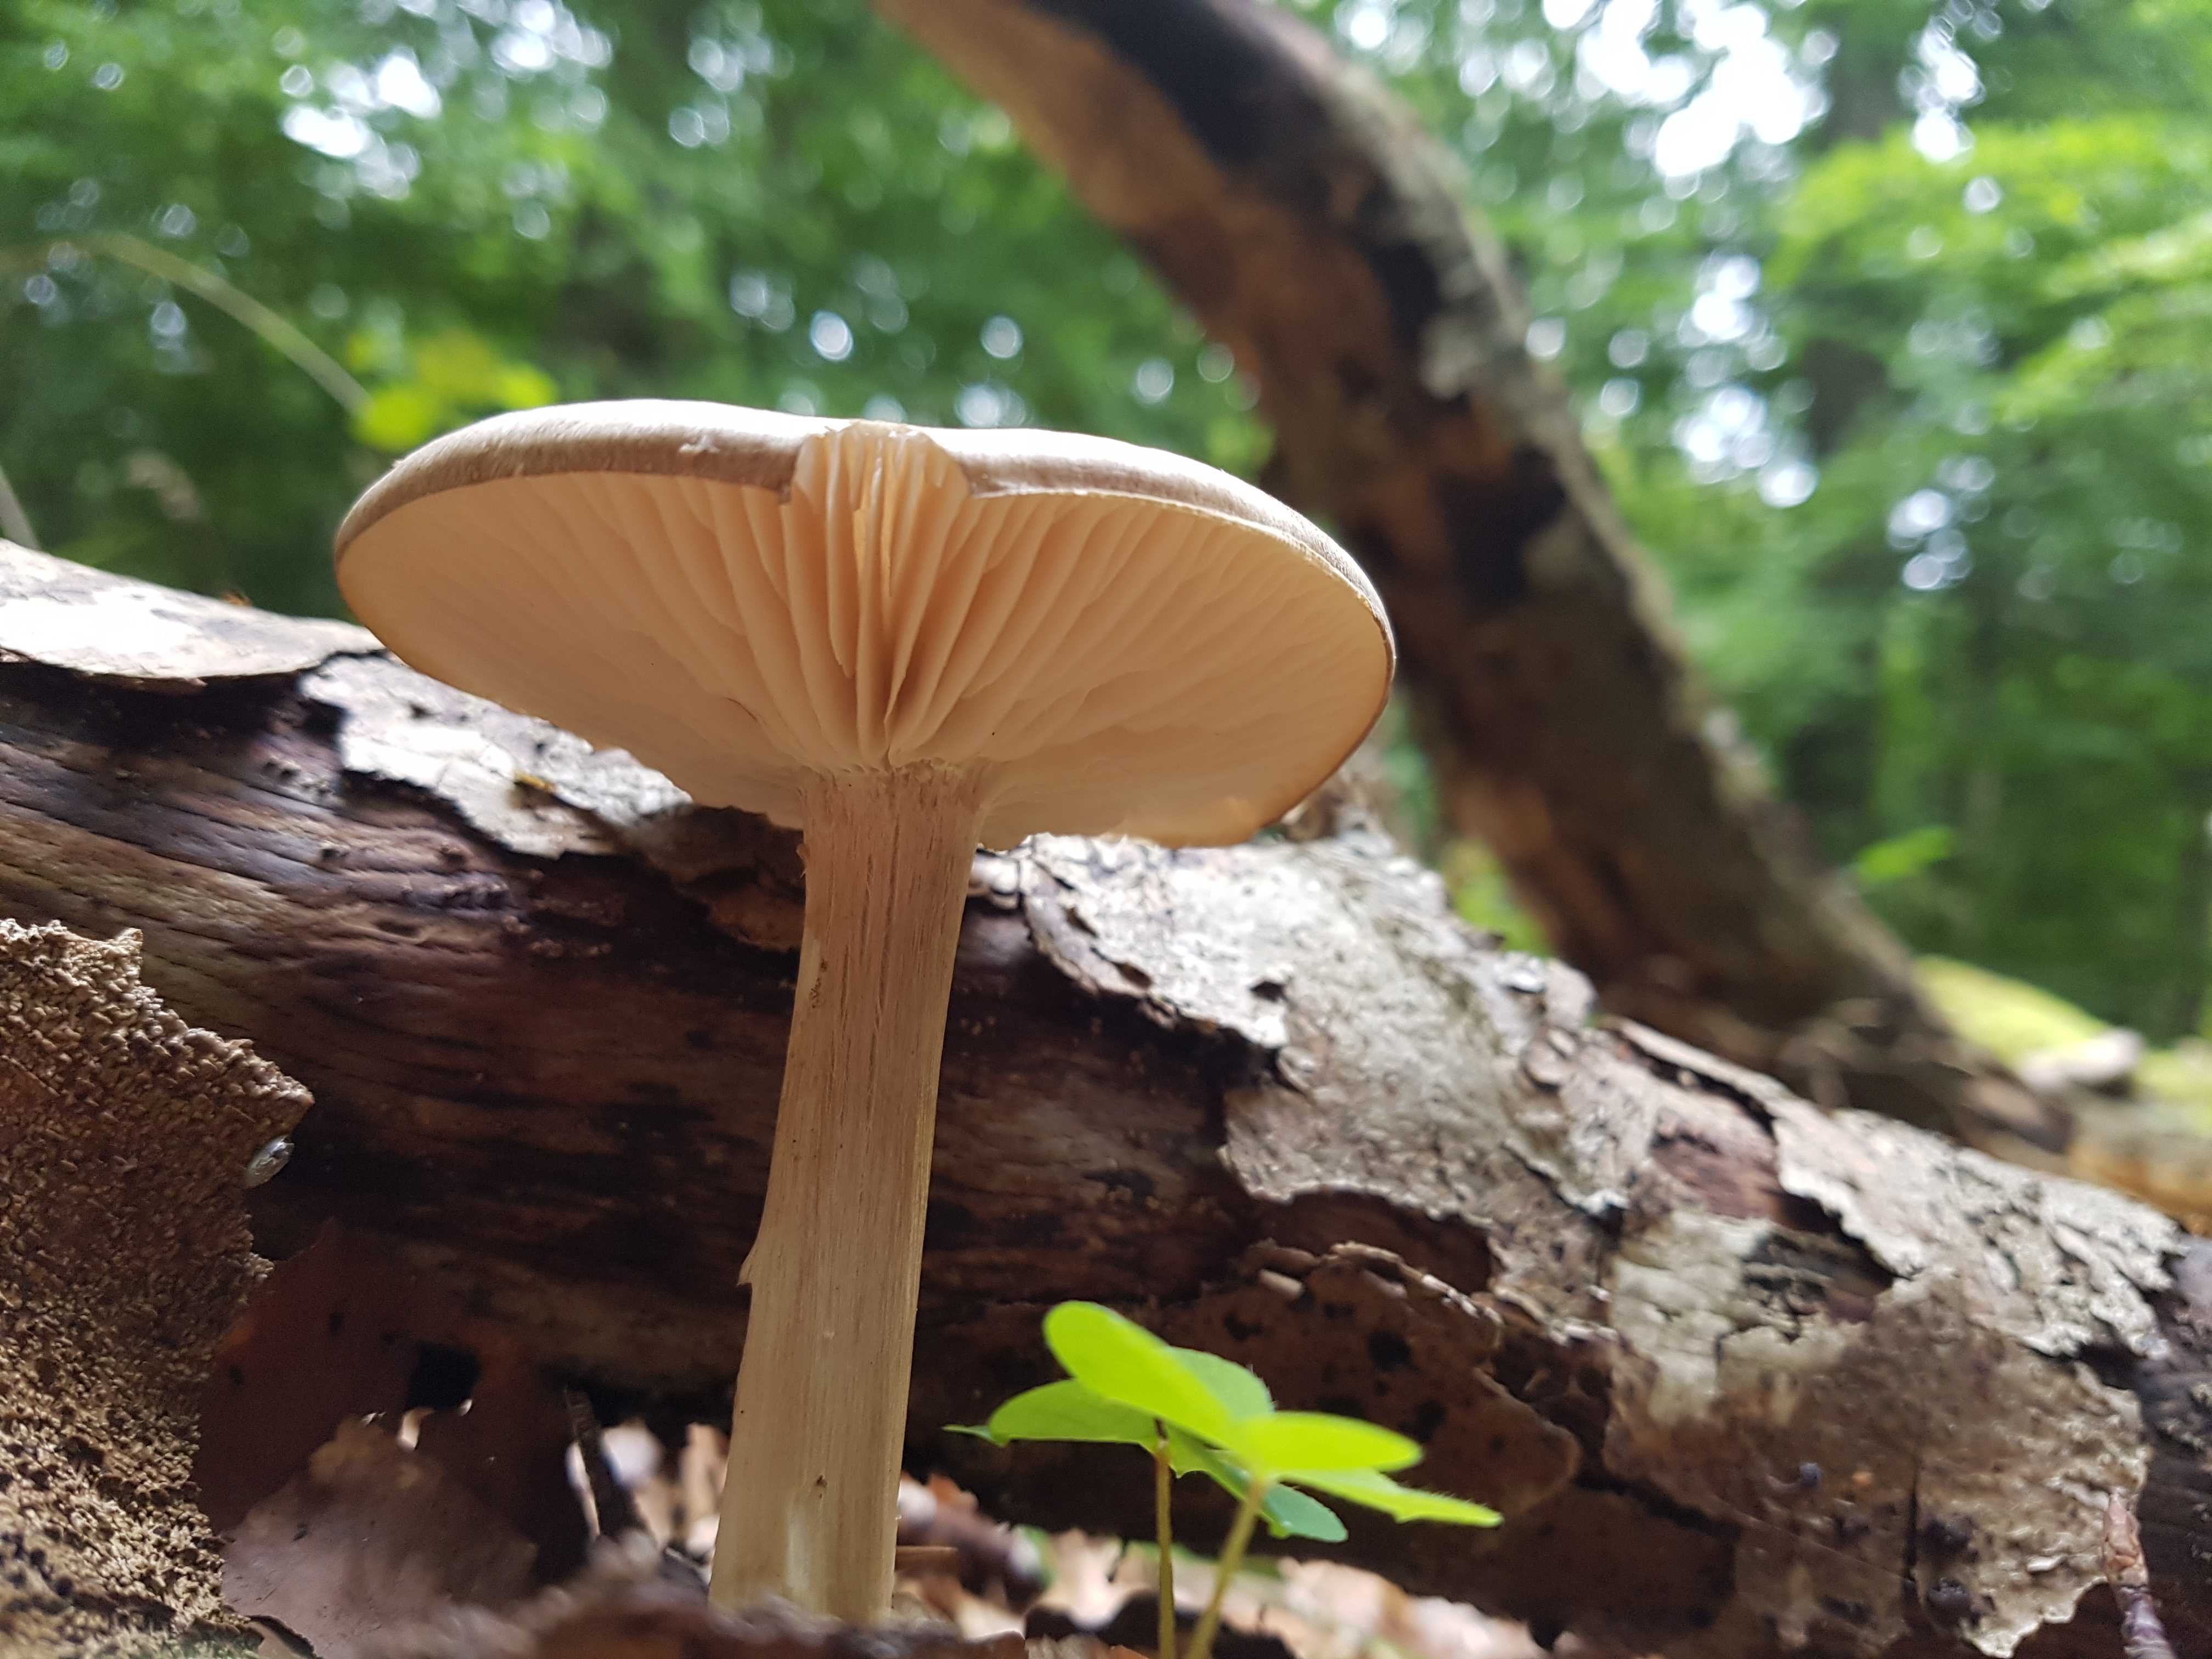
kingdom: Fungi
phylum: Basidiomycota
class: Agaricomycetes
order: Agaricales
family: Tricholomataceae
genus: Megacollybia
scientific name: Megacollybia platyphylla
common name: bredbladet væbnerhat
